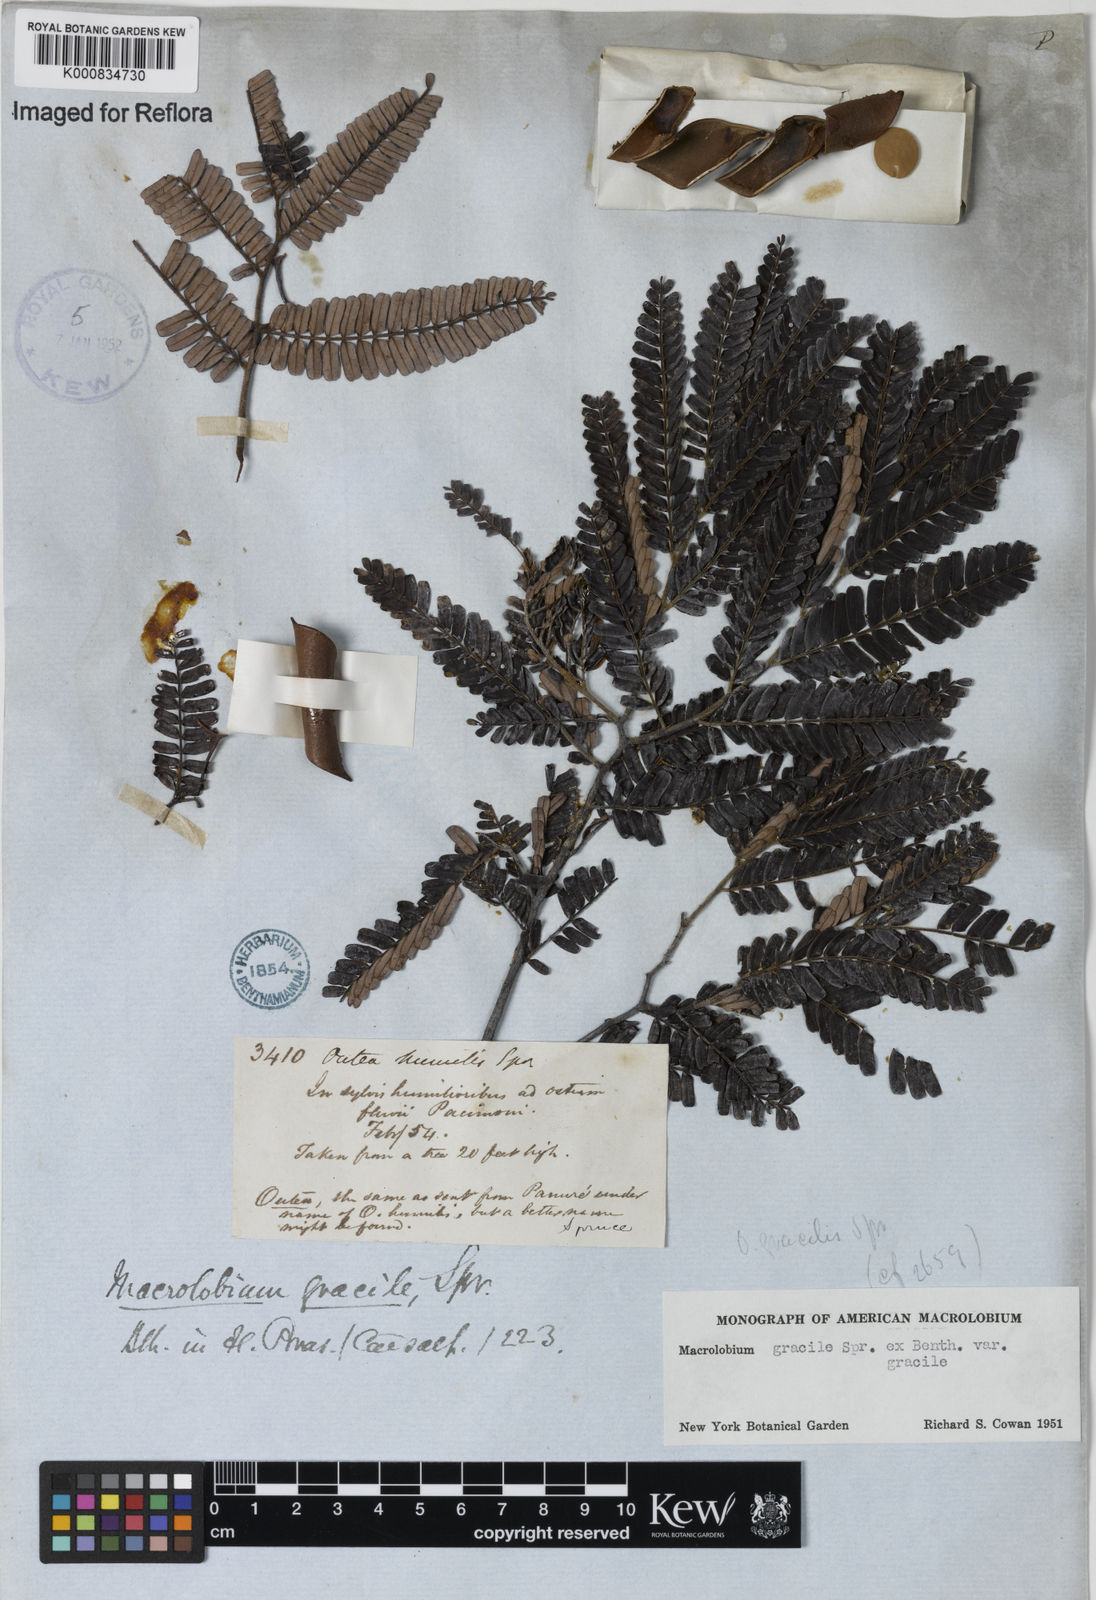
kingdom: Plantae
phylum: Tracheophyta
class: Magnoliopsida
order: Fabales
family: Fabaceae
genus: Macrolobium
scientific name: Macrolobium gracile
